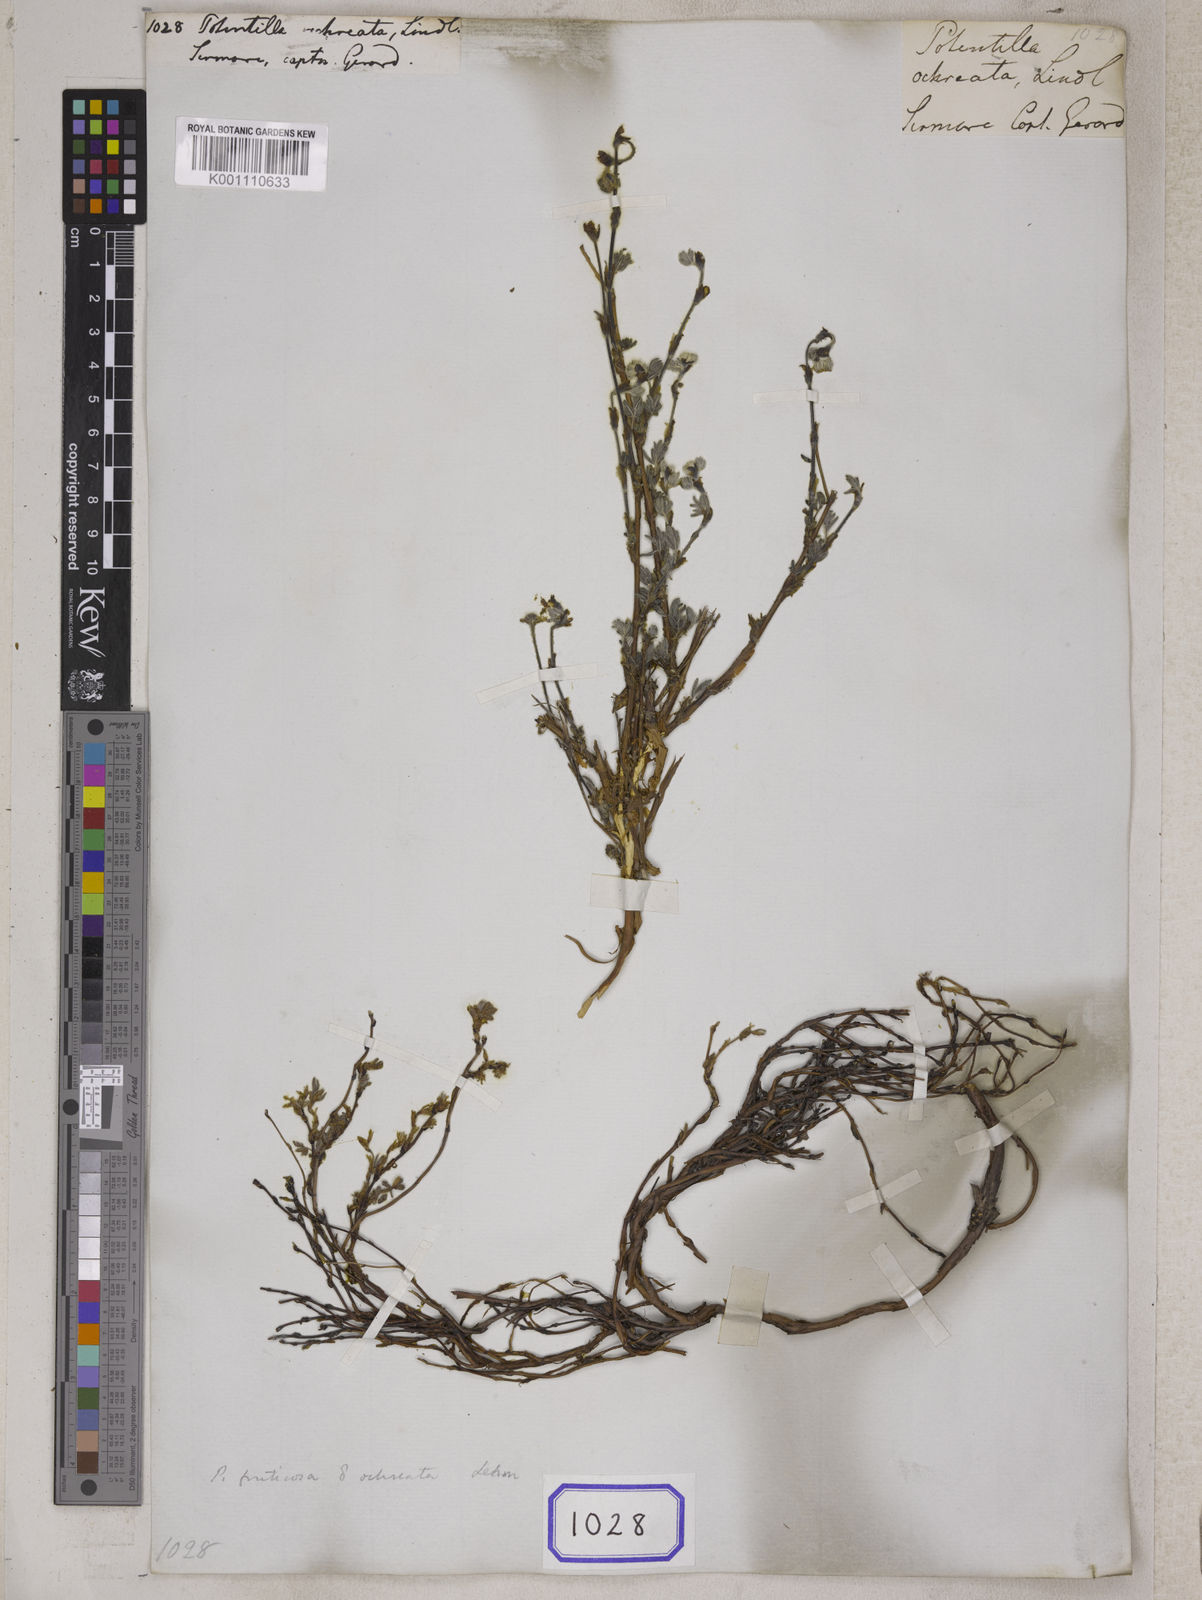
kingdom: Plantae
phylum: Tracheophyta
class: Magnoliopsida
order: Rosales
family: Rosaceae
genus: Dasiphora
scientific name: Dasiphora fruticosa
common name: Shrubby cinquefoil
